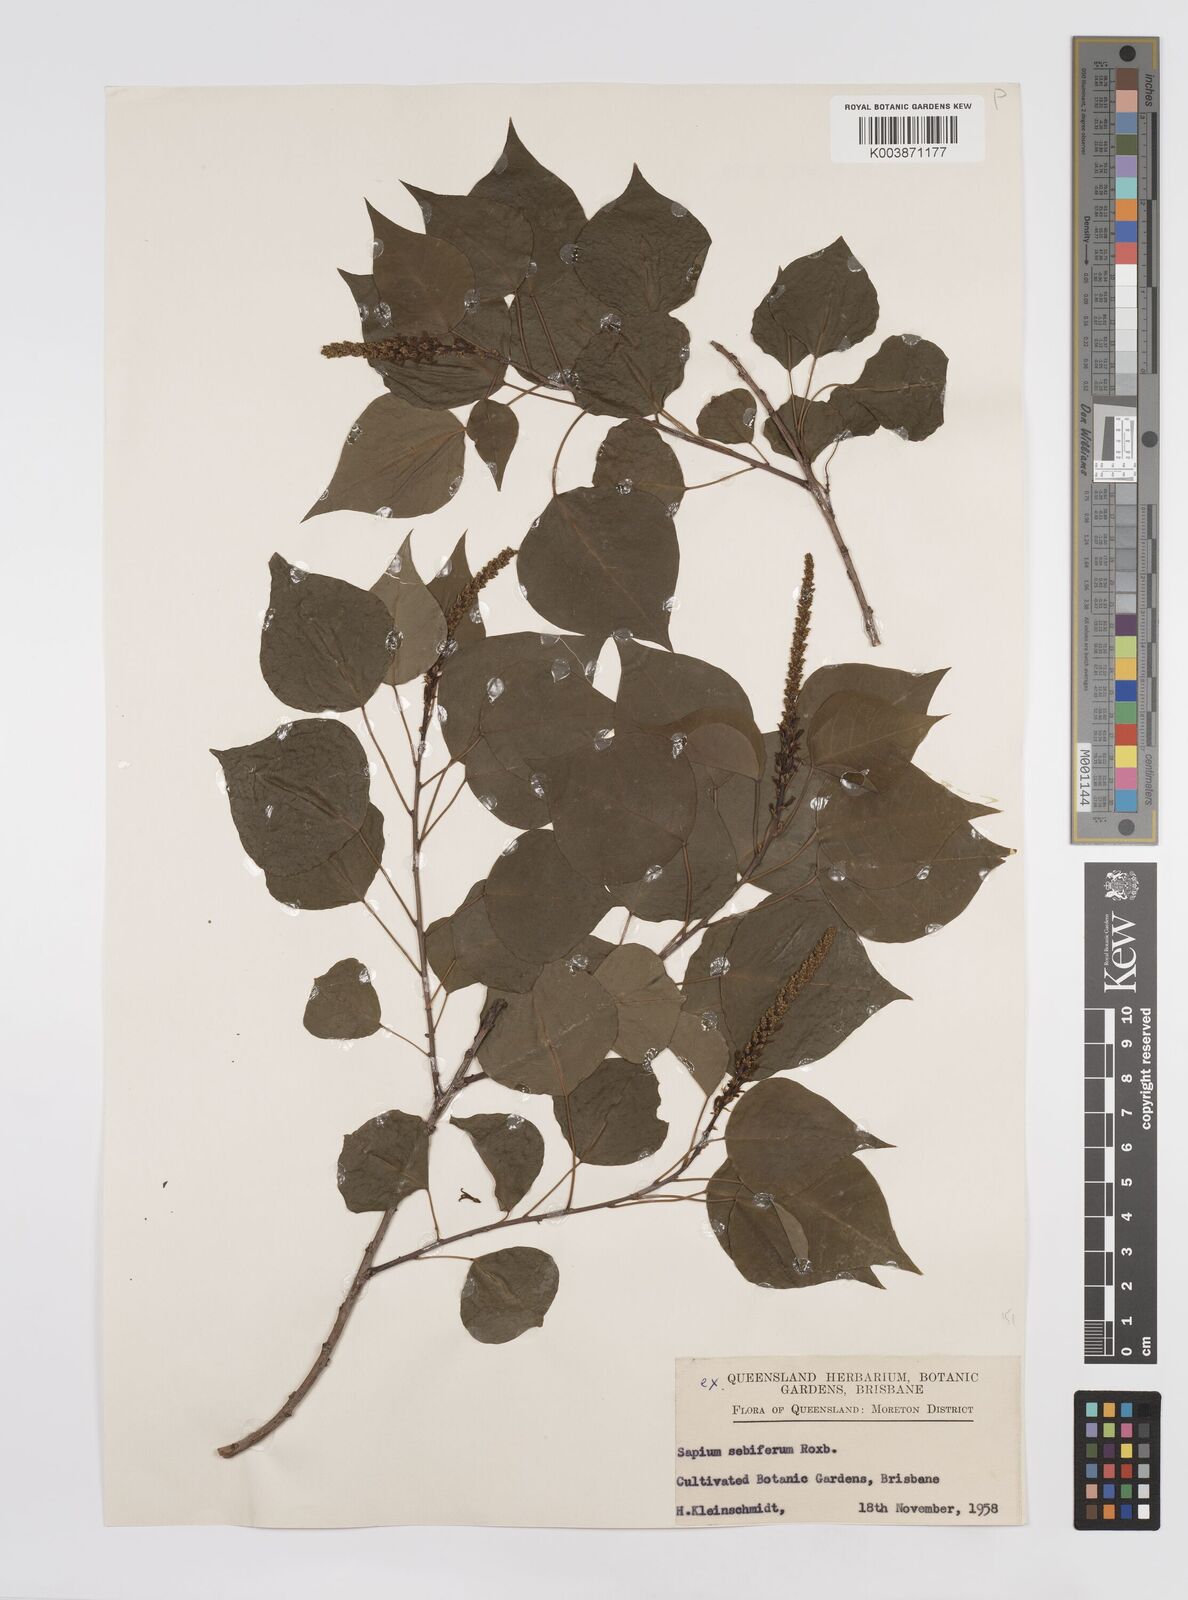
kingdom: Plantae
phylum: Tracheophyta
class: Magnoliopsida
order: Malpighiales
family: Euphorbiaceae
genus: Triadica
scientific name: Triadica sebifera
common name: Chinese tallow
